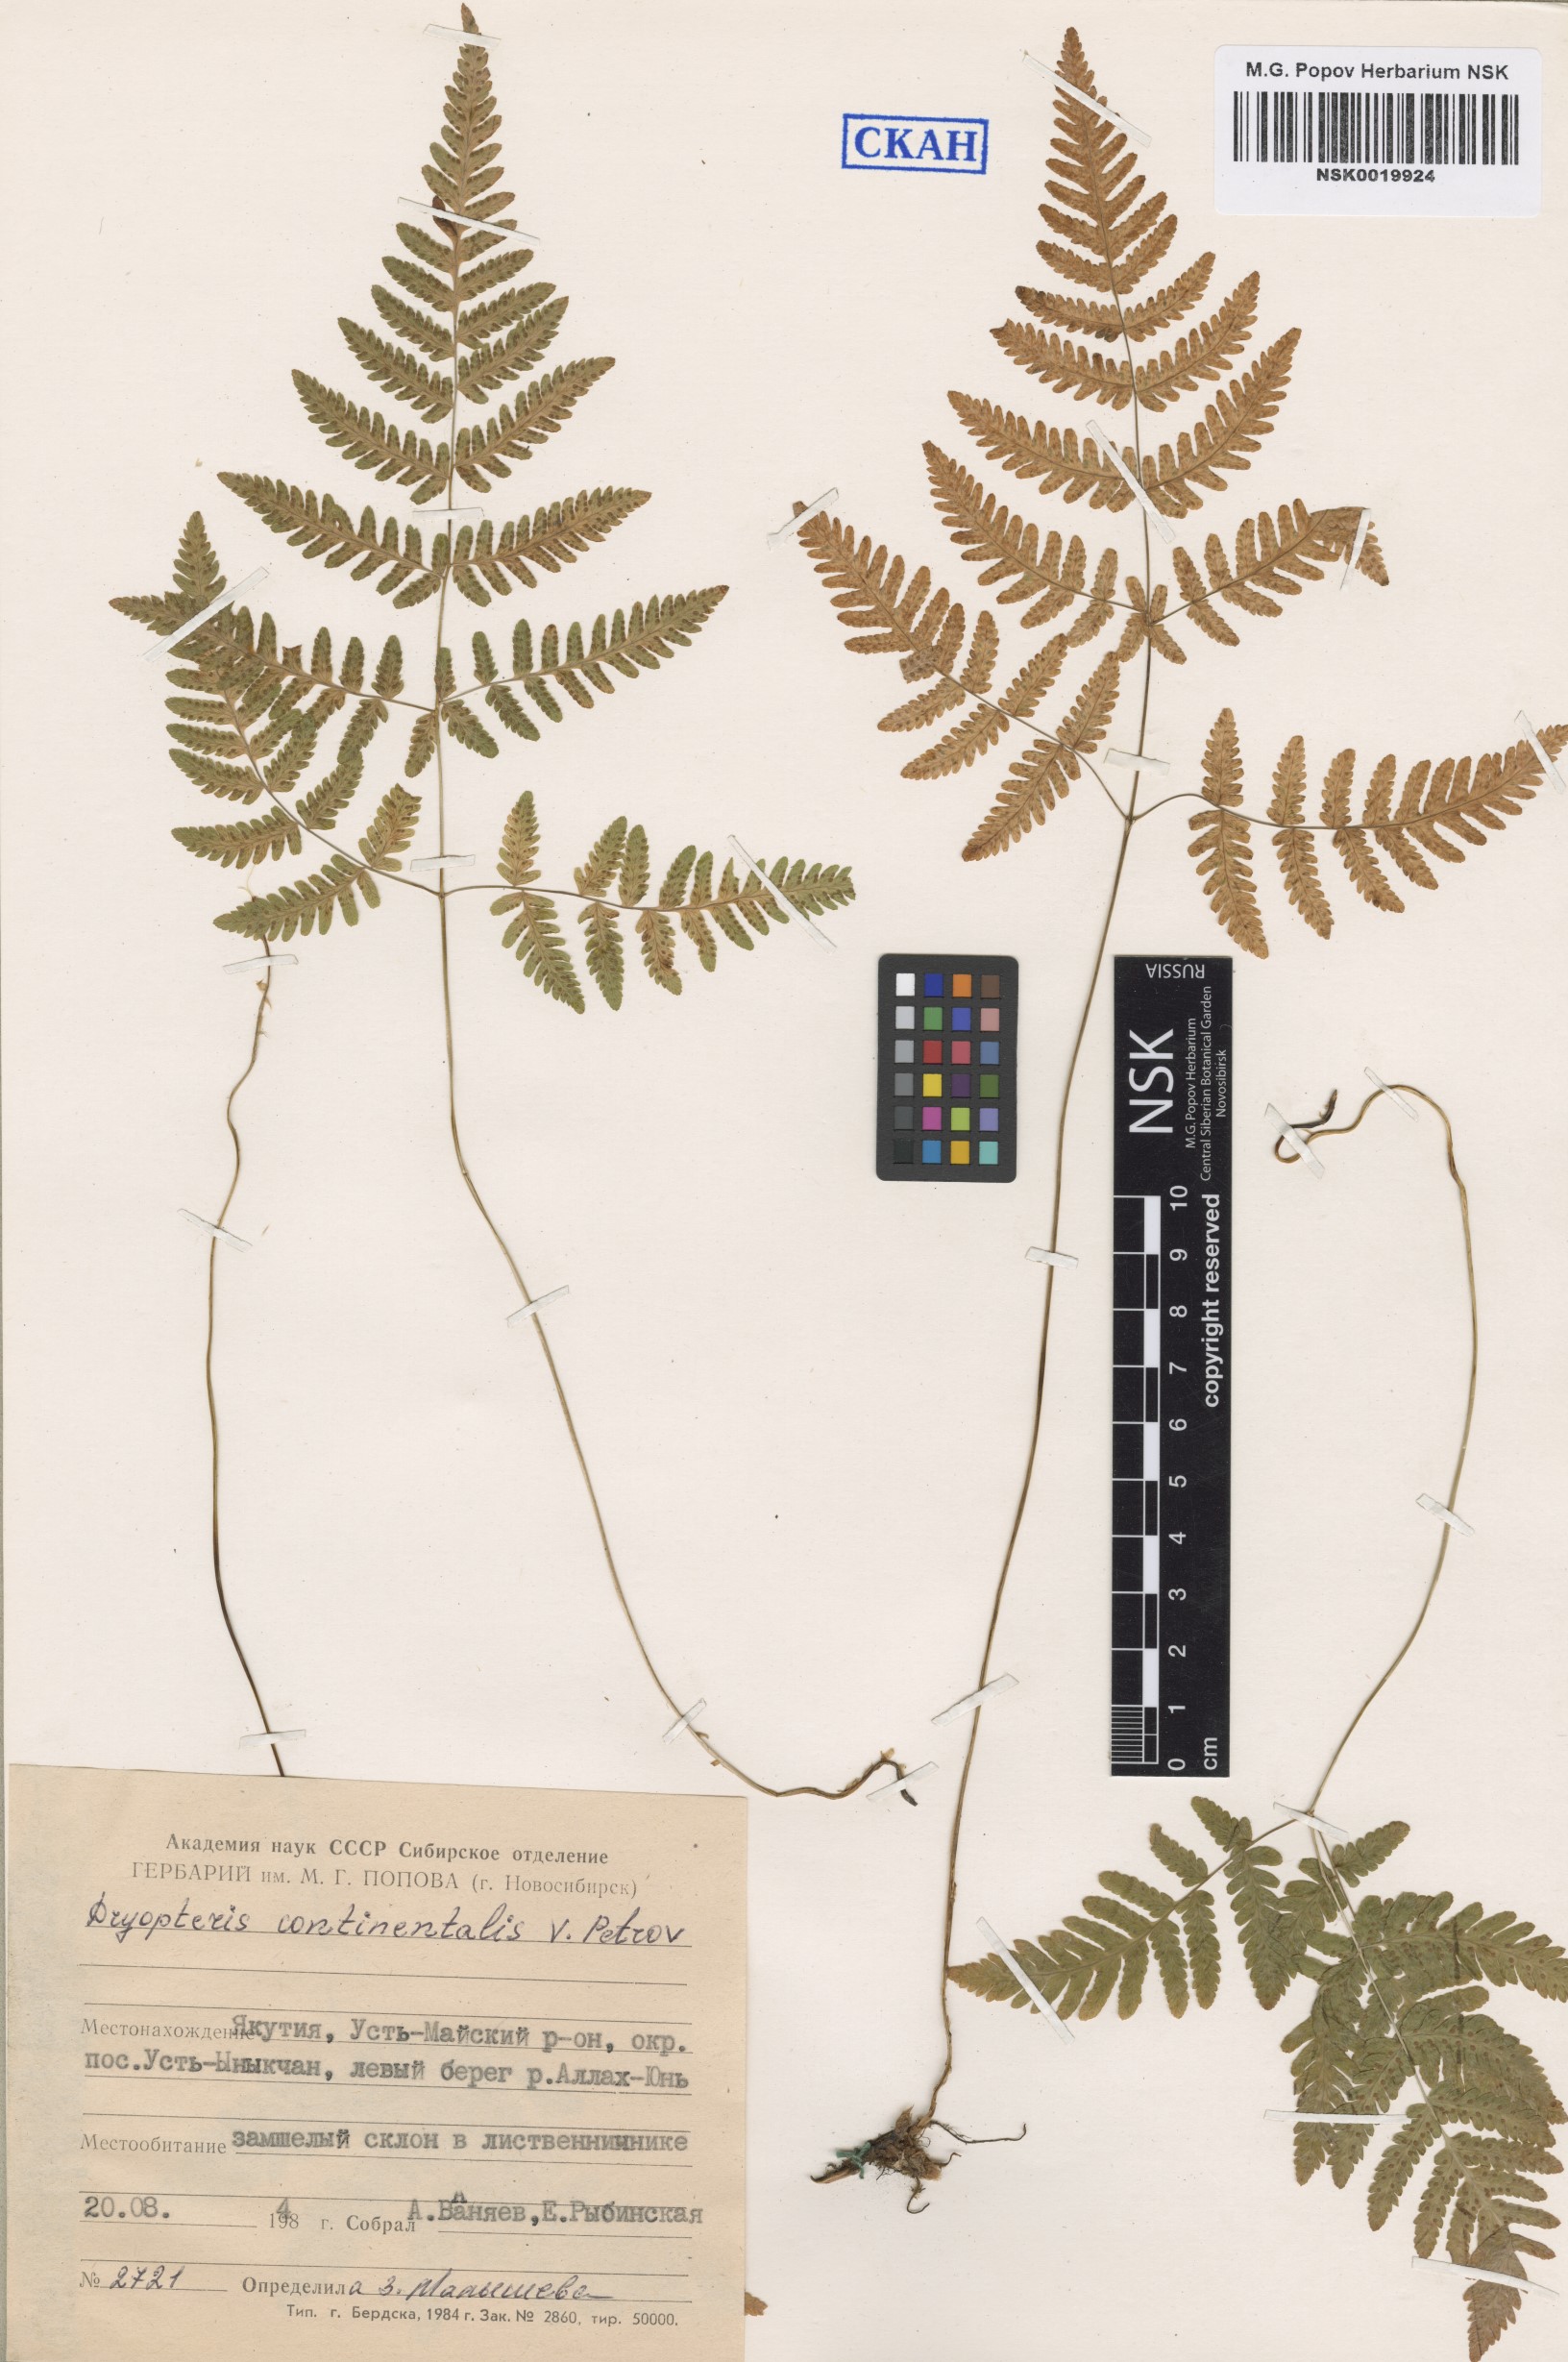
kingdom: Plantae
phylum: Tracheophyta
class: Polypodiopsida
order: Polypodiales
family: Cystopteridaceae
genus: Gymnocarpium
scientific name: Gymnocarpium continentale
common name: Asian oak fern
